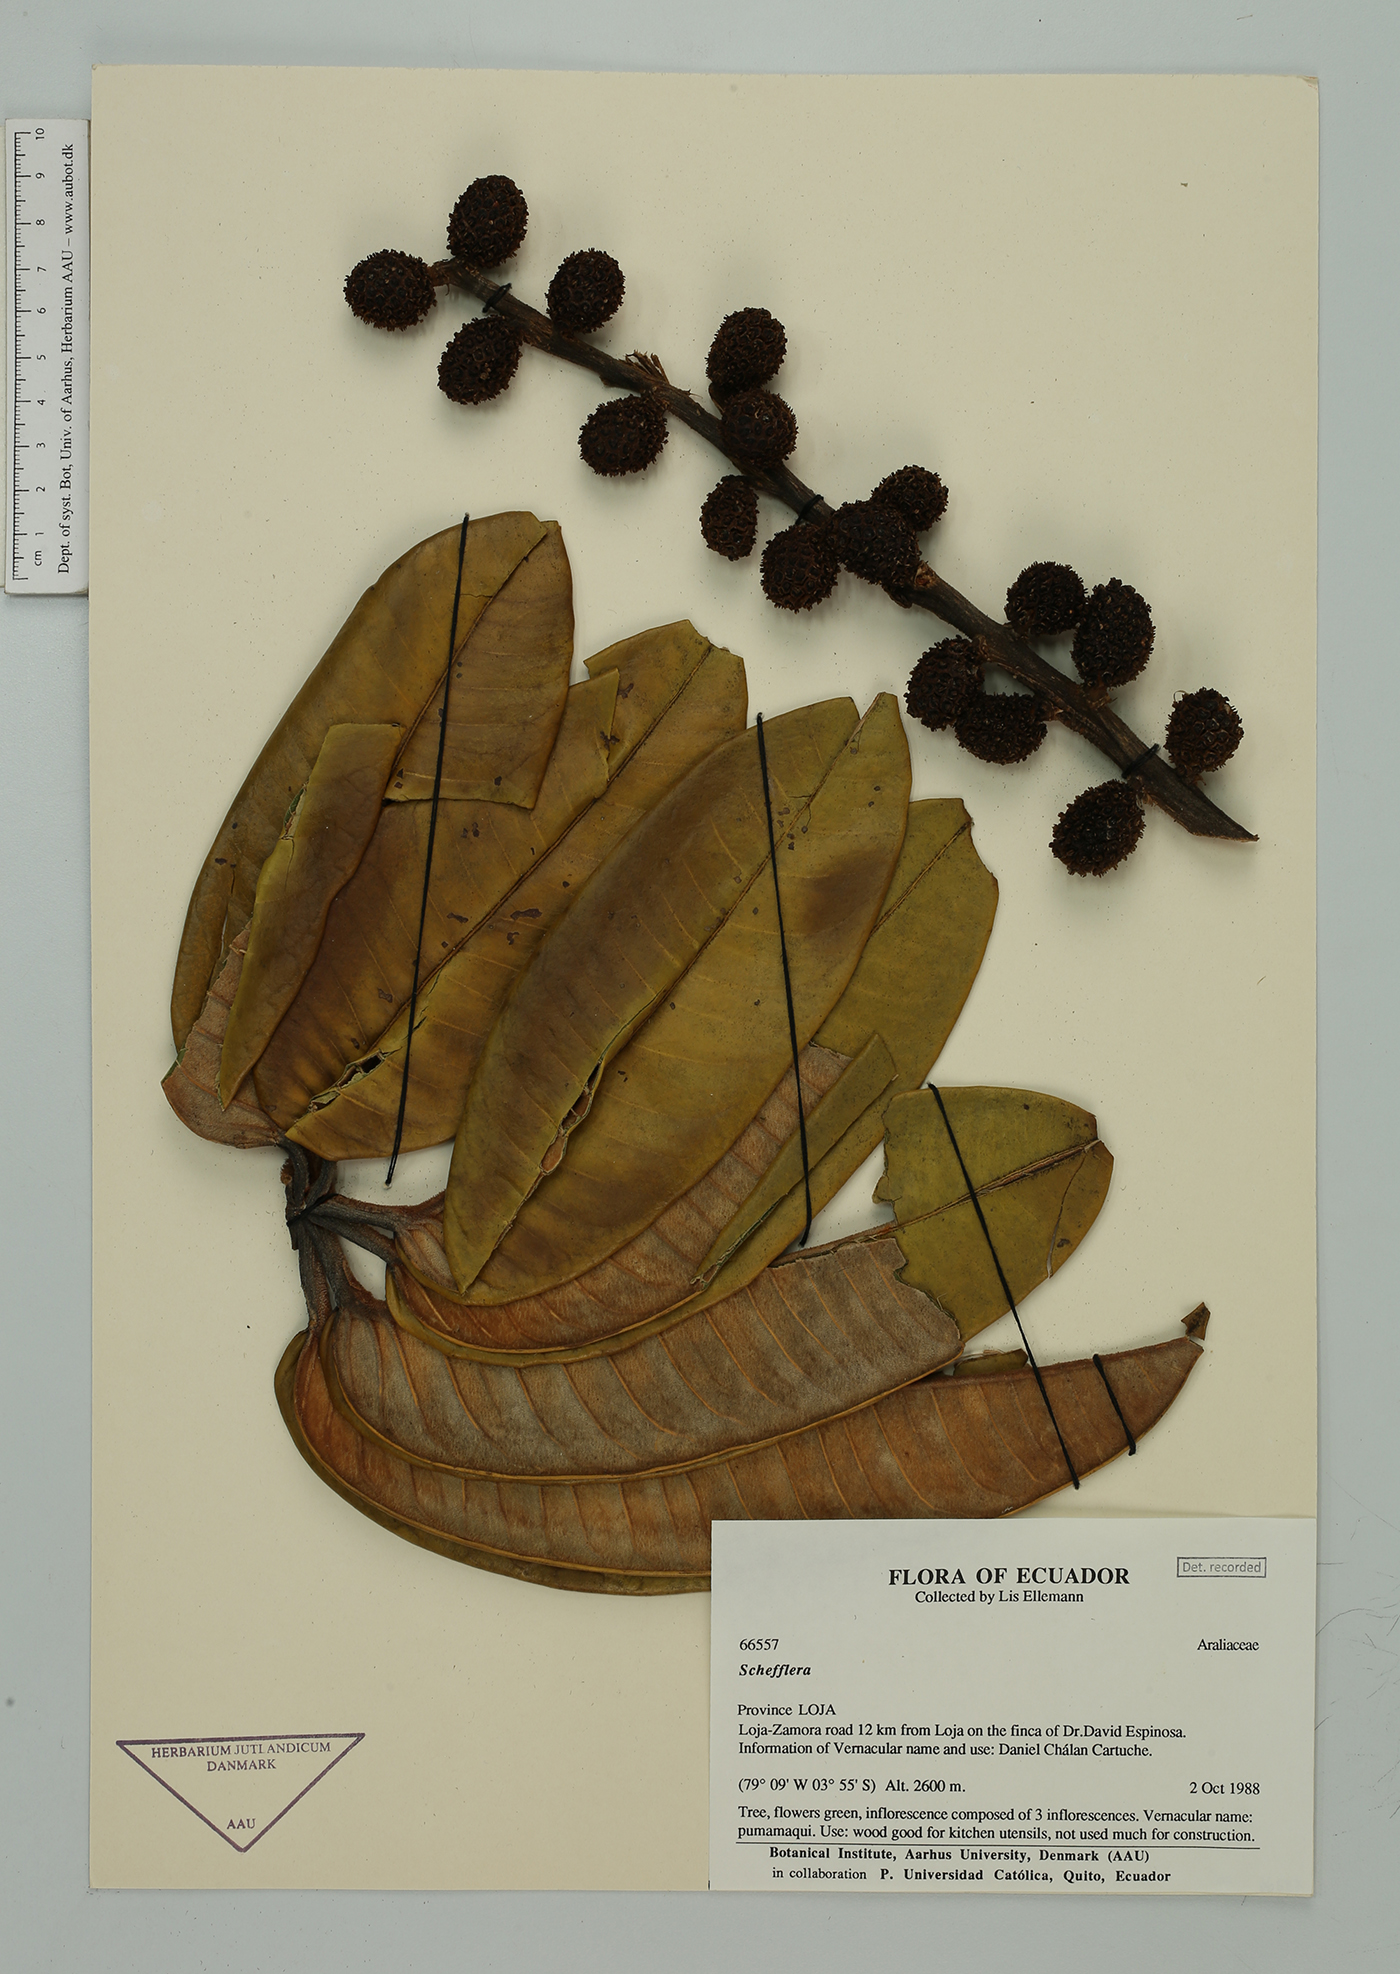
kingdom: Plantae
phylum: Tracheophyta
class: Magnoliopsida
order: Apiales
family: Araliaceae
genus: Sciodaphyllum
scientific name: Sciodaphyllum
